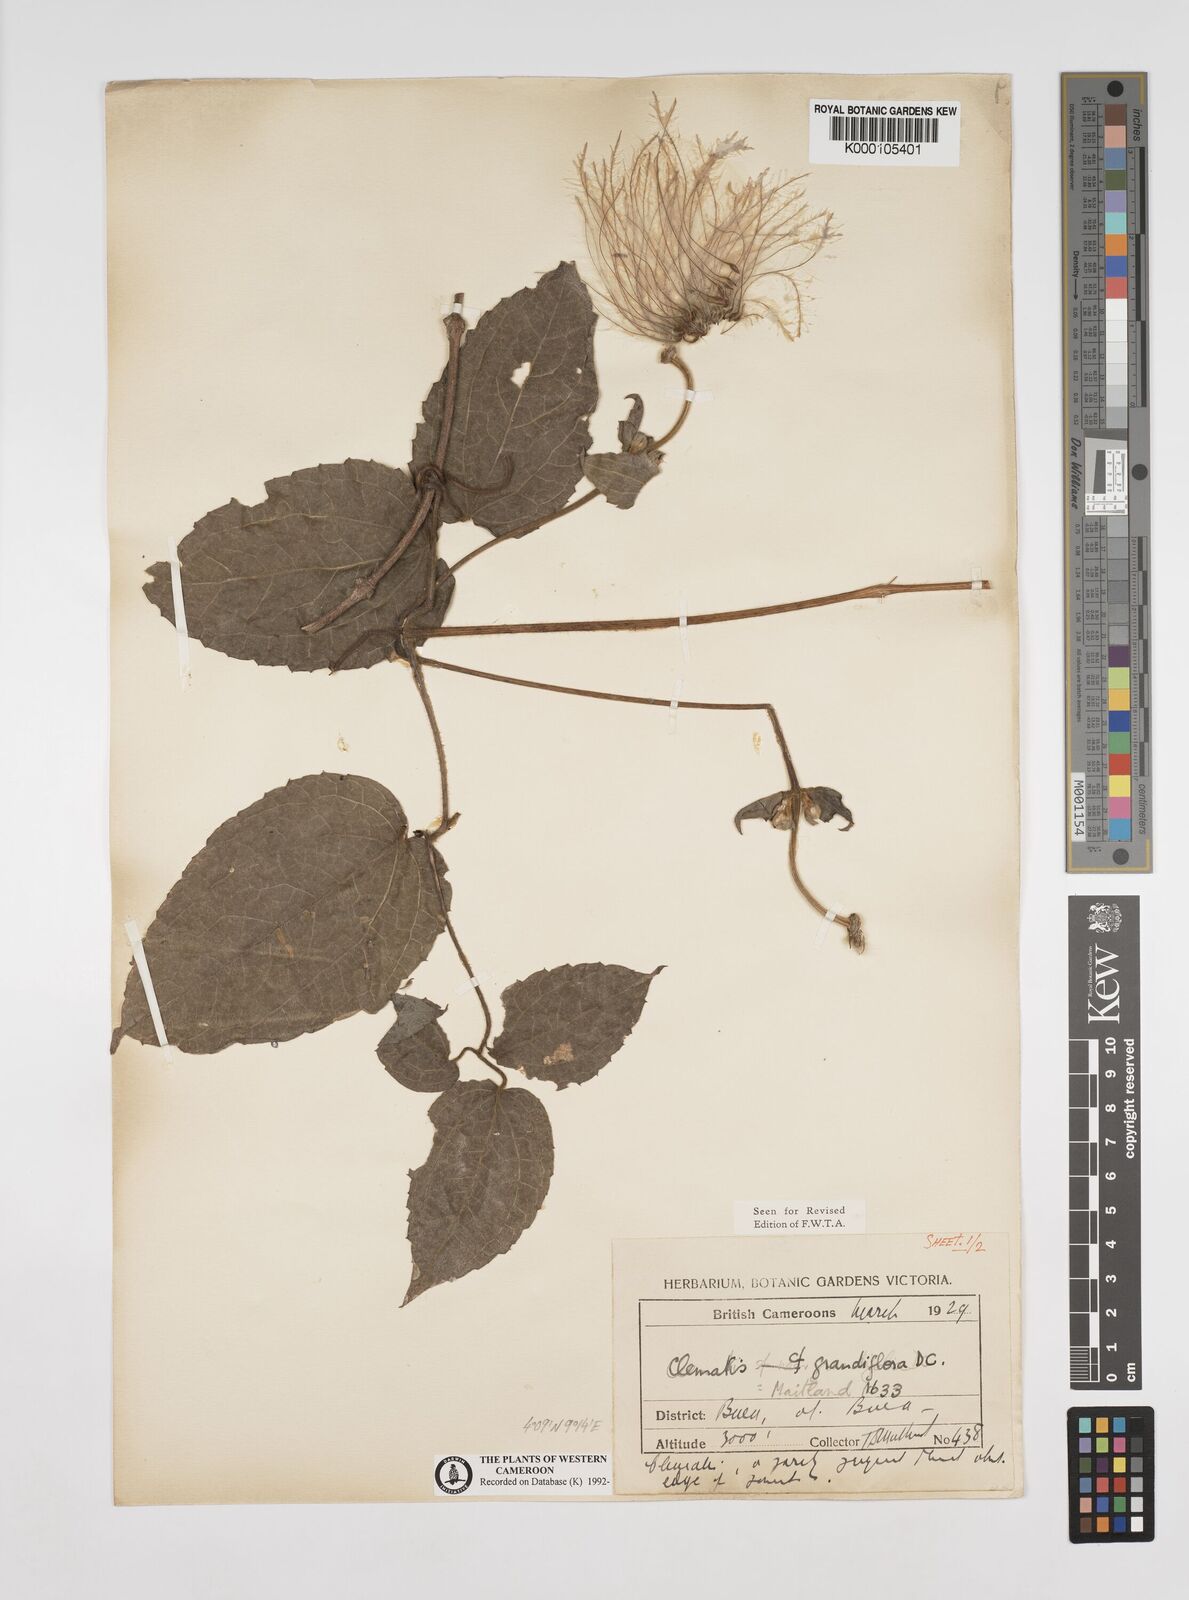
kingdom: Plantae
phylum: Tracheophyta
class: Magnoliopsida
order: Ranunculales
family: Ranunculaceae
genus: Clematis
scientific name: Clematis grandiflora
